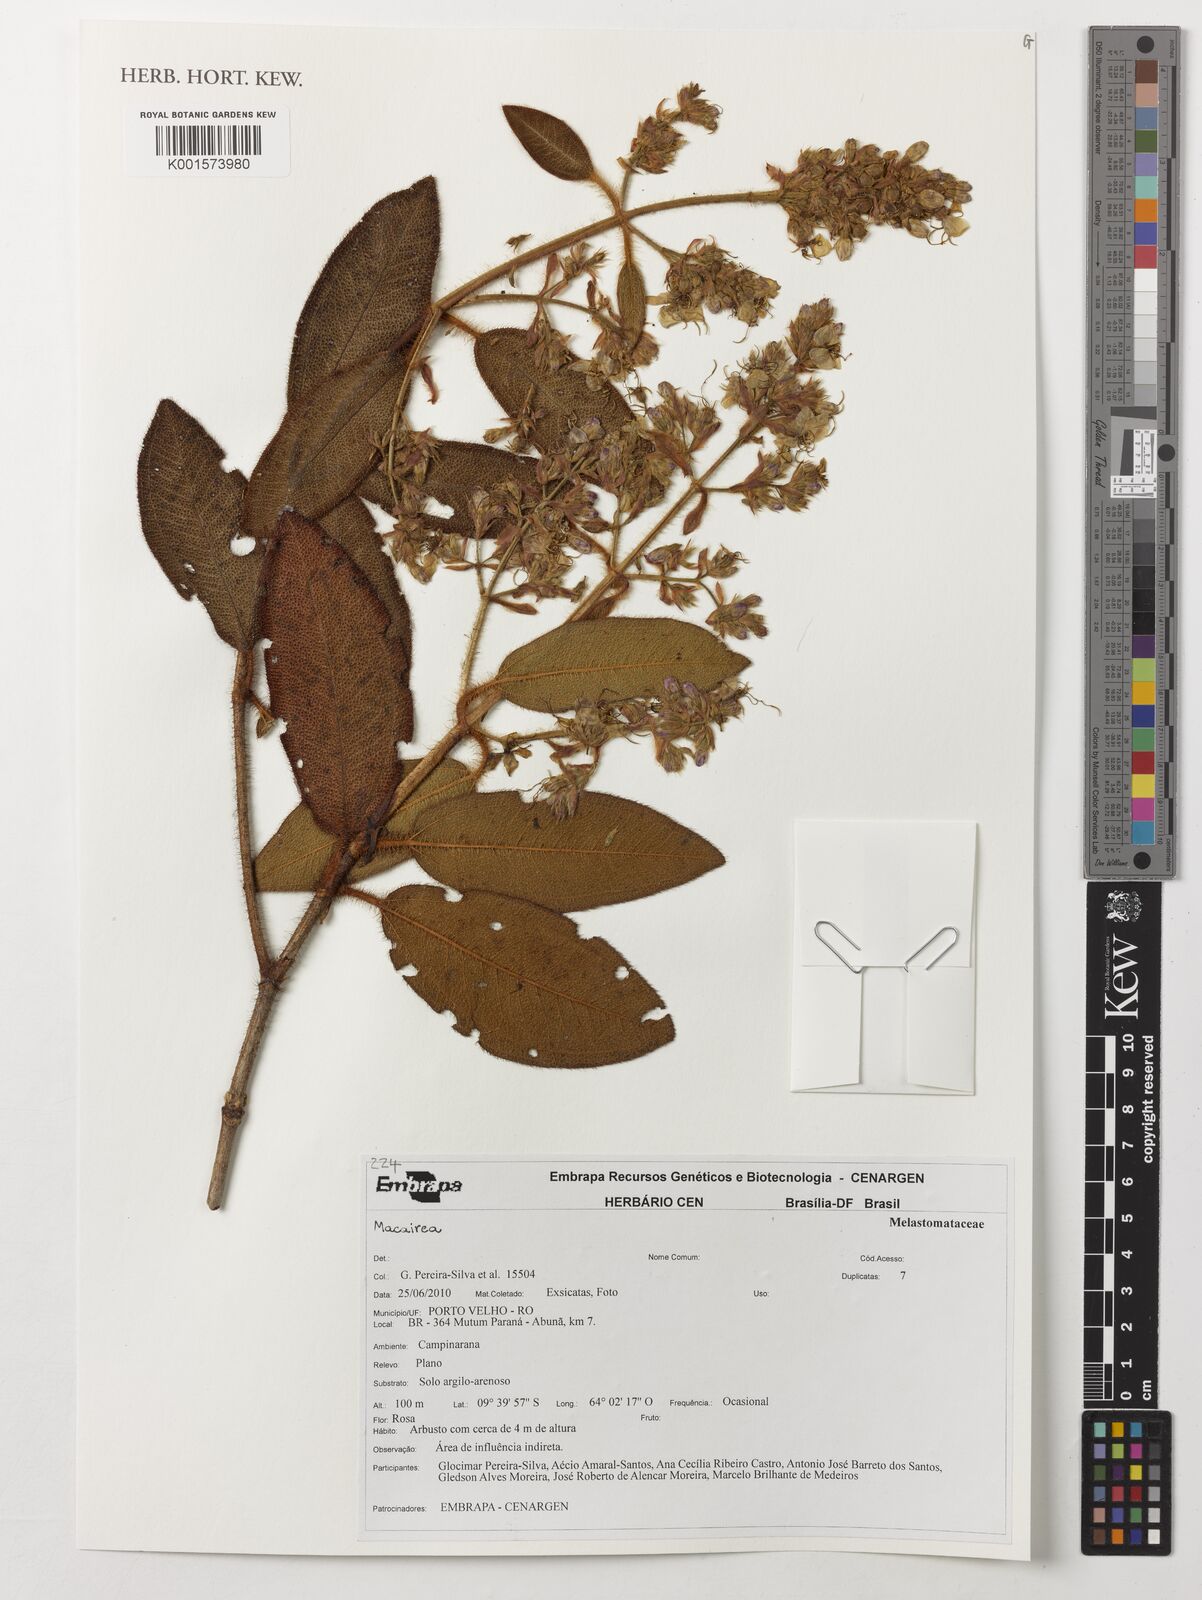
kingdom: Plantae
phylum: Tracheophyta
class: Magnoliopsida
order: Myrtales
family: Melastomataceae
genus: Macairea
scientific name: Macairea
